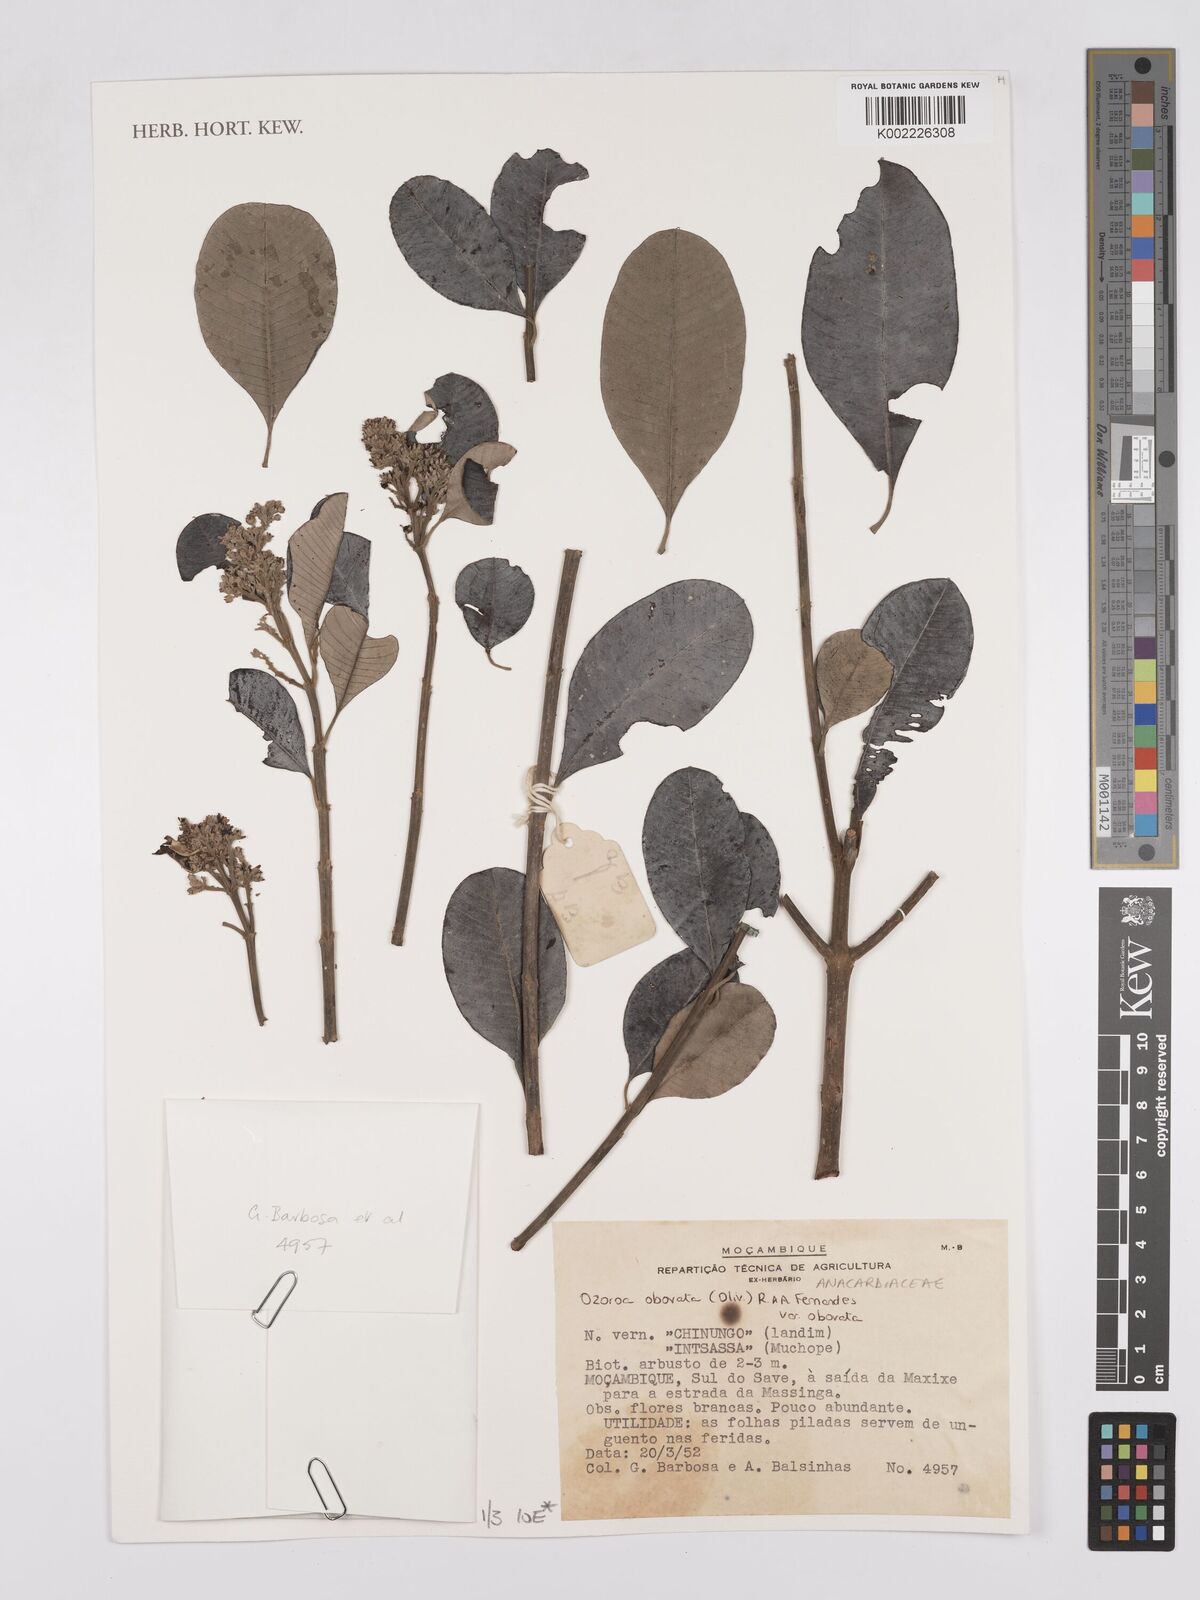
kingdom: Plantae
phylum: Tracheophyta
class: Magnoliopsida
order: Sapindales
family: Anacardiaceae
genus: Ozoroa
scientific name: Ozoroa obovata
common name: Broad-leaved resin tree
